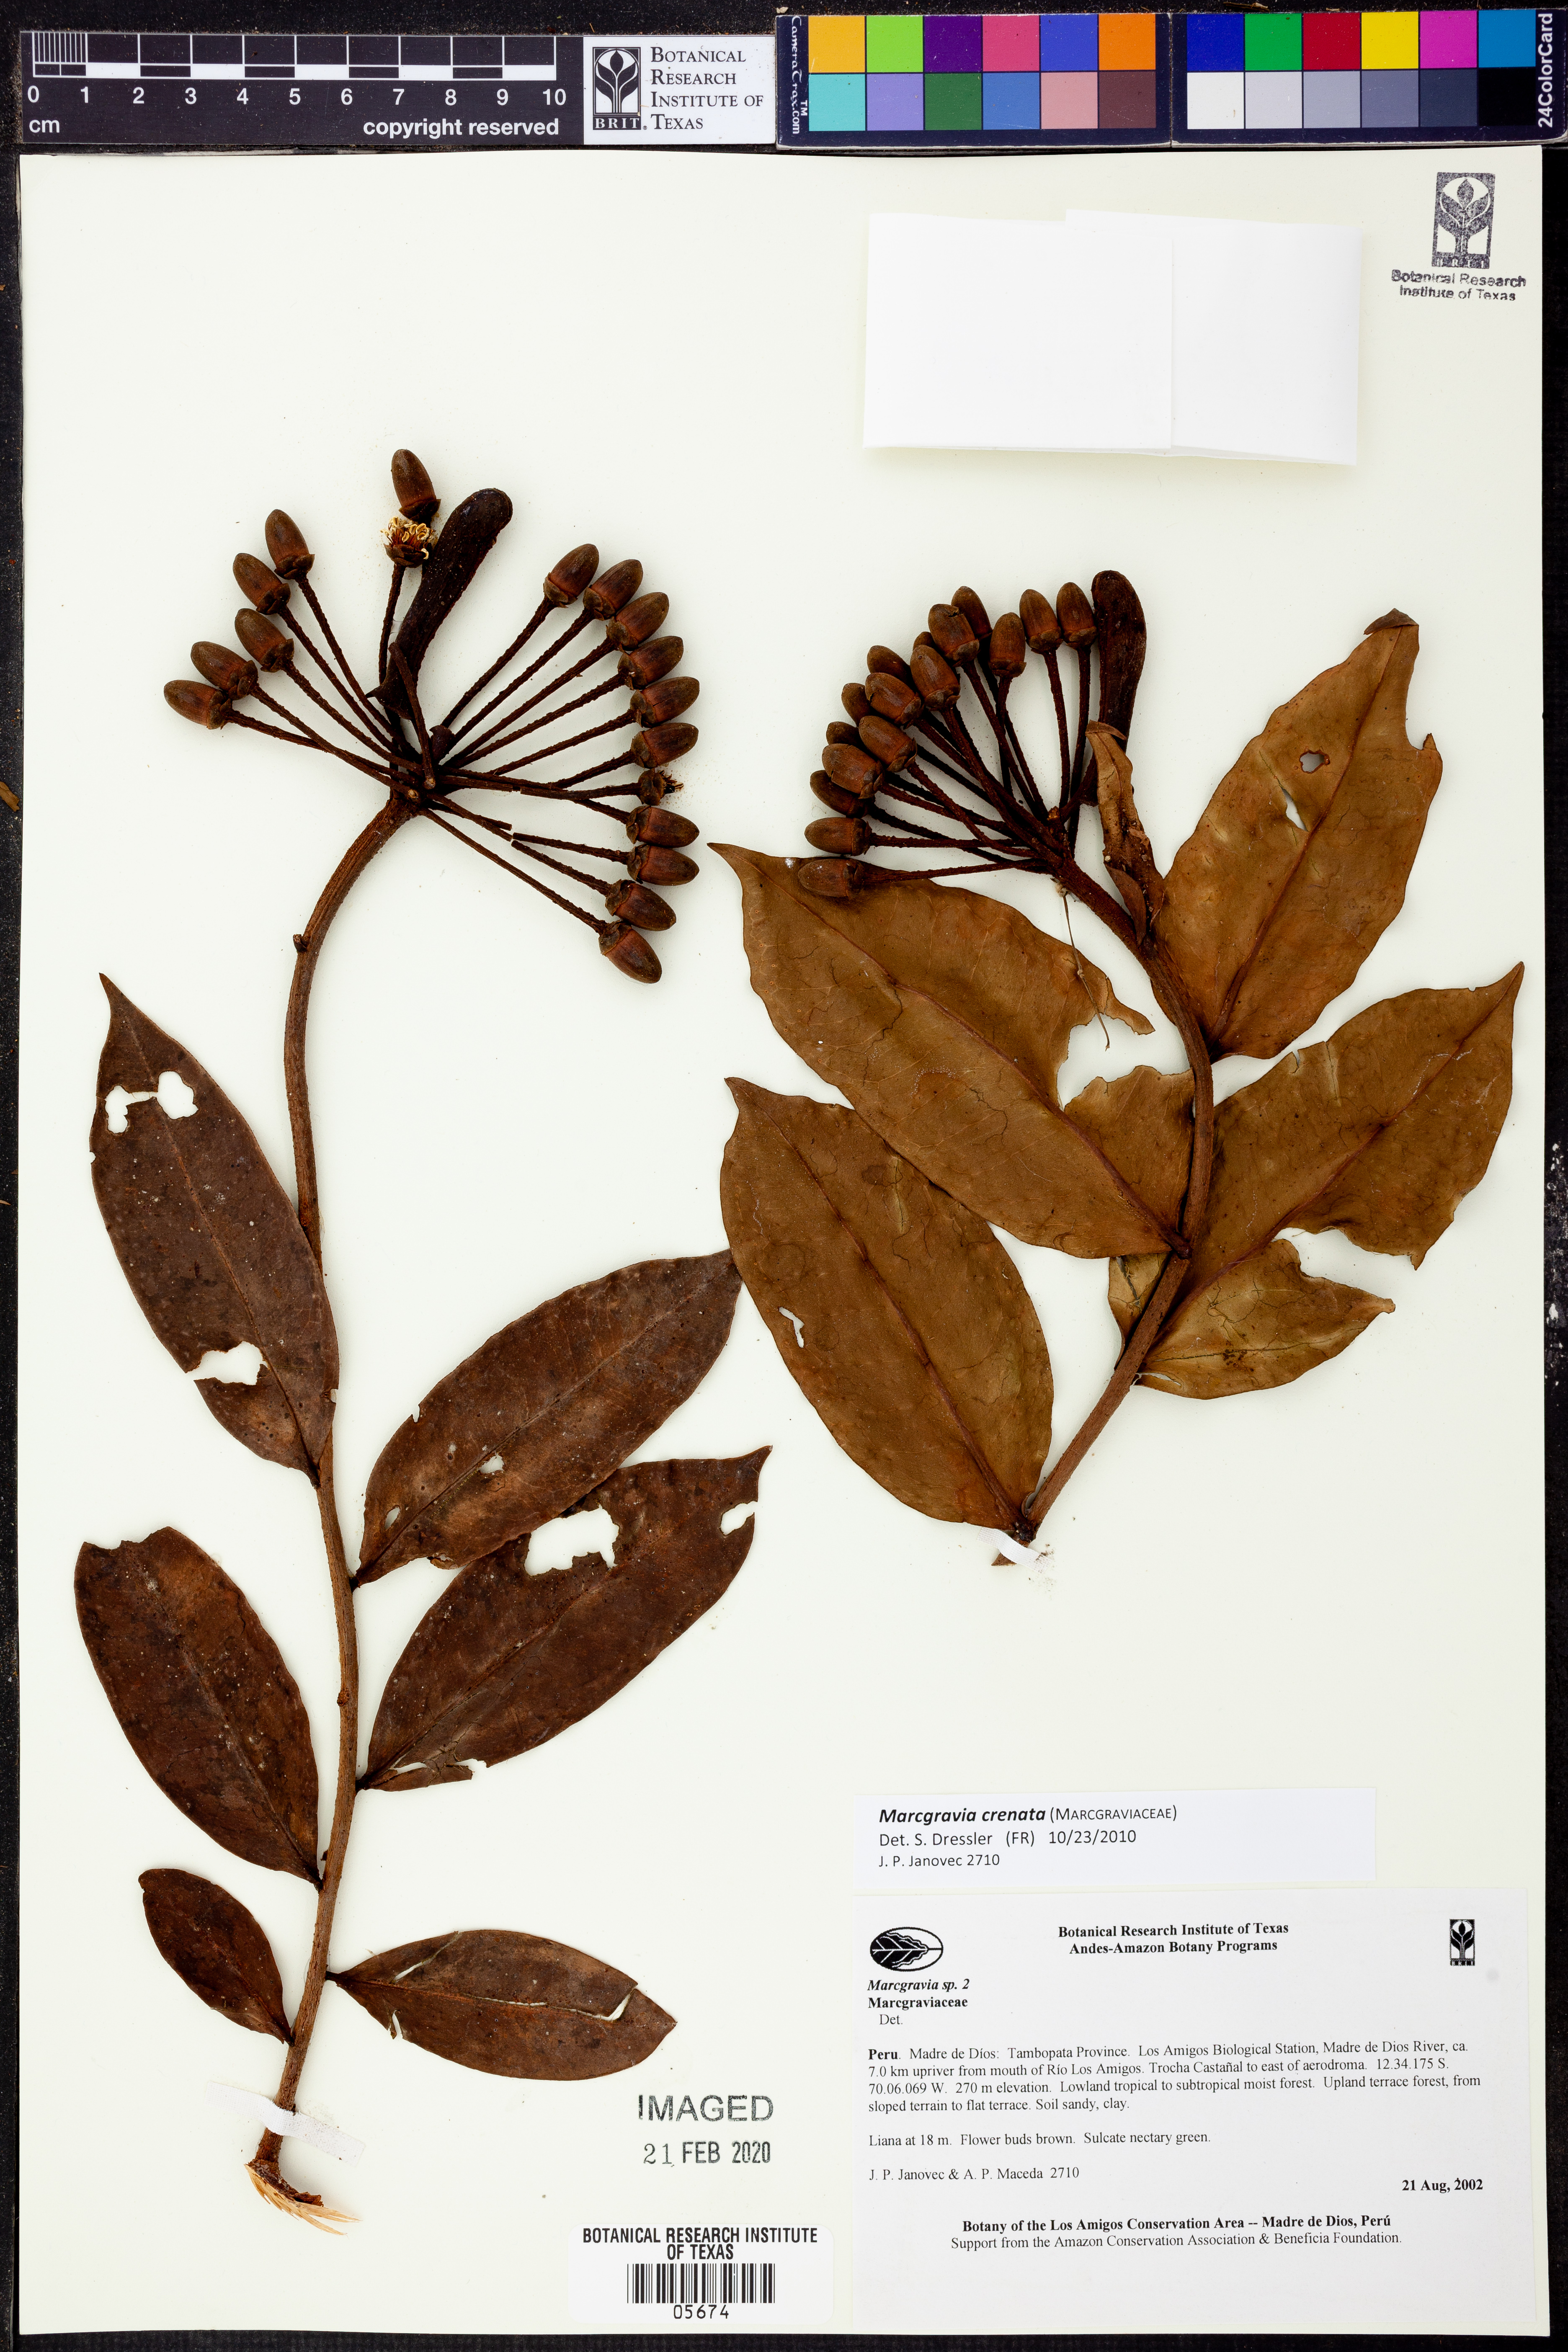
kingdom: Plantae
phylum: Tracheophyta
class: Magnoliopsida
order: Ericales
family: Marcgraviaceae
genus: Marcgravia
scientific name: Marcgravia
